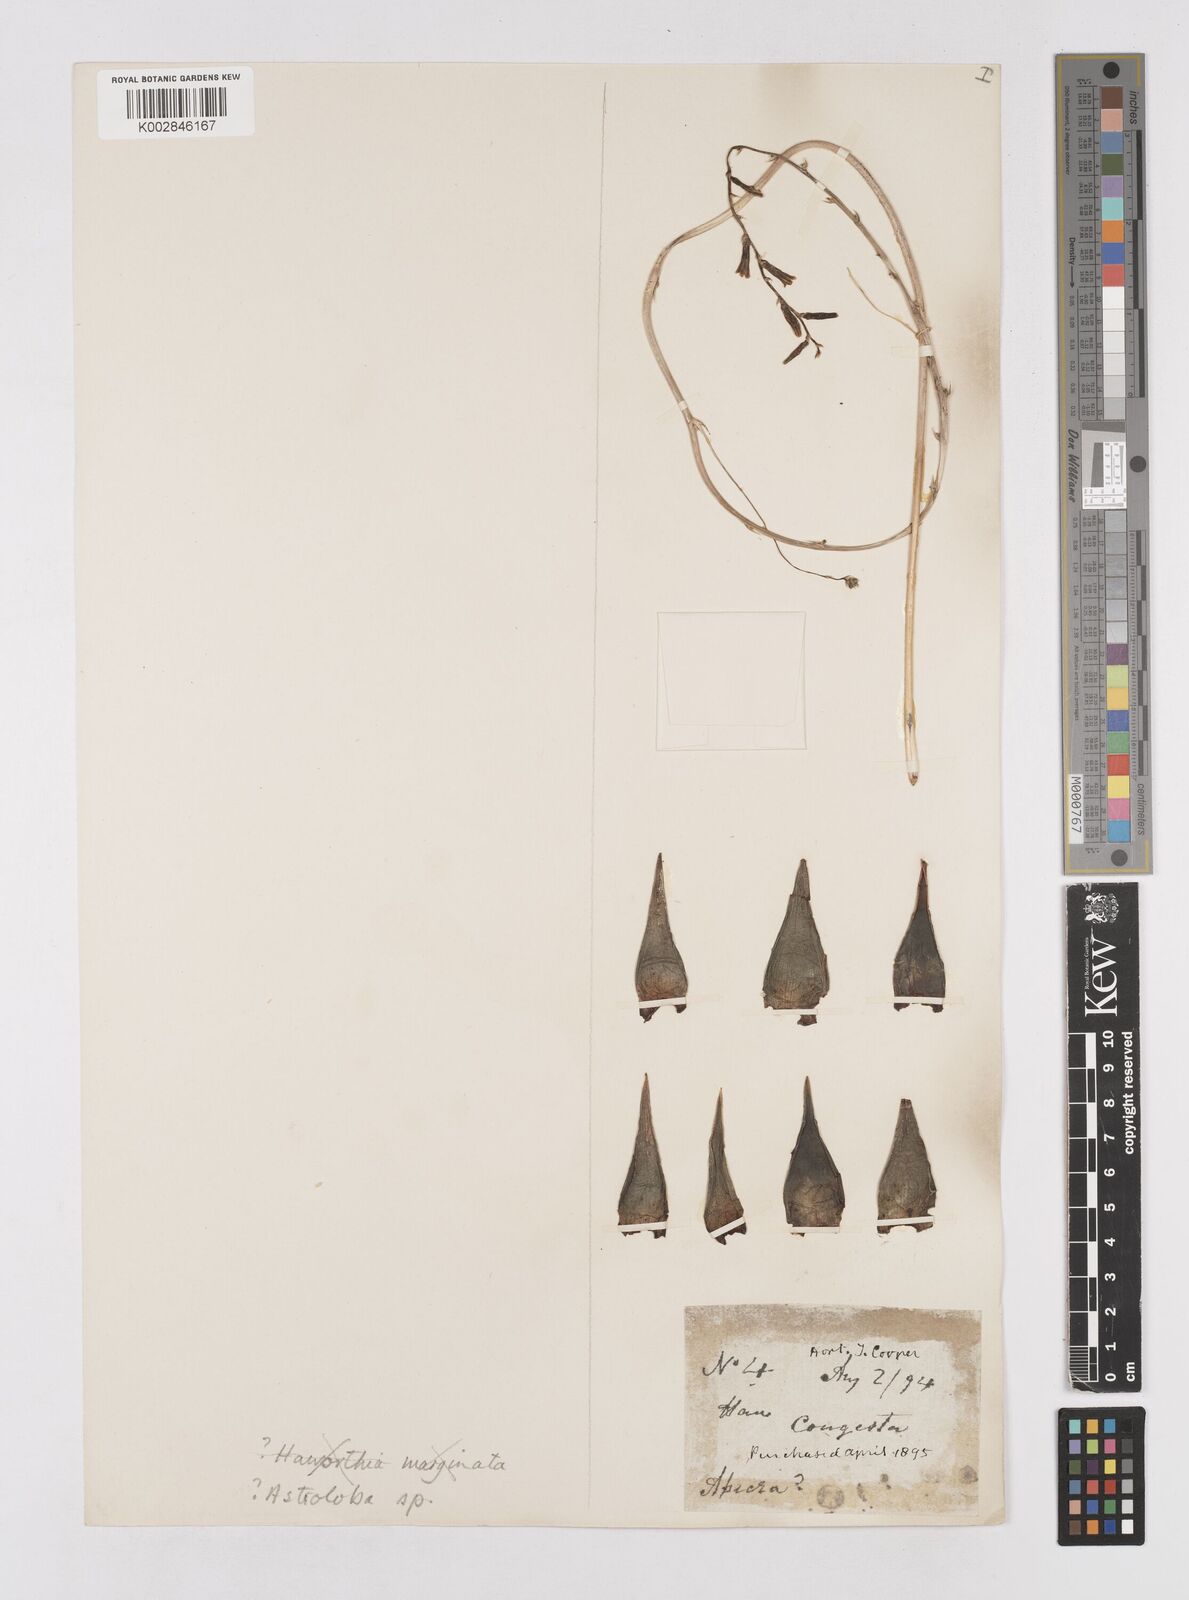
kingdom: Plantae
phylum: Tracheophyta
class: Liliopsida
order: Asparagales
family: Asphodelaceae
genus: Astroloba
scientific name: Astroloba
